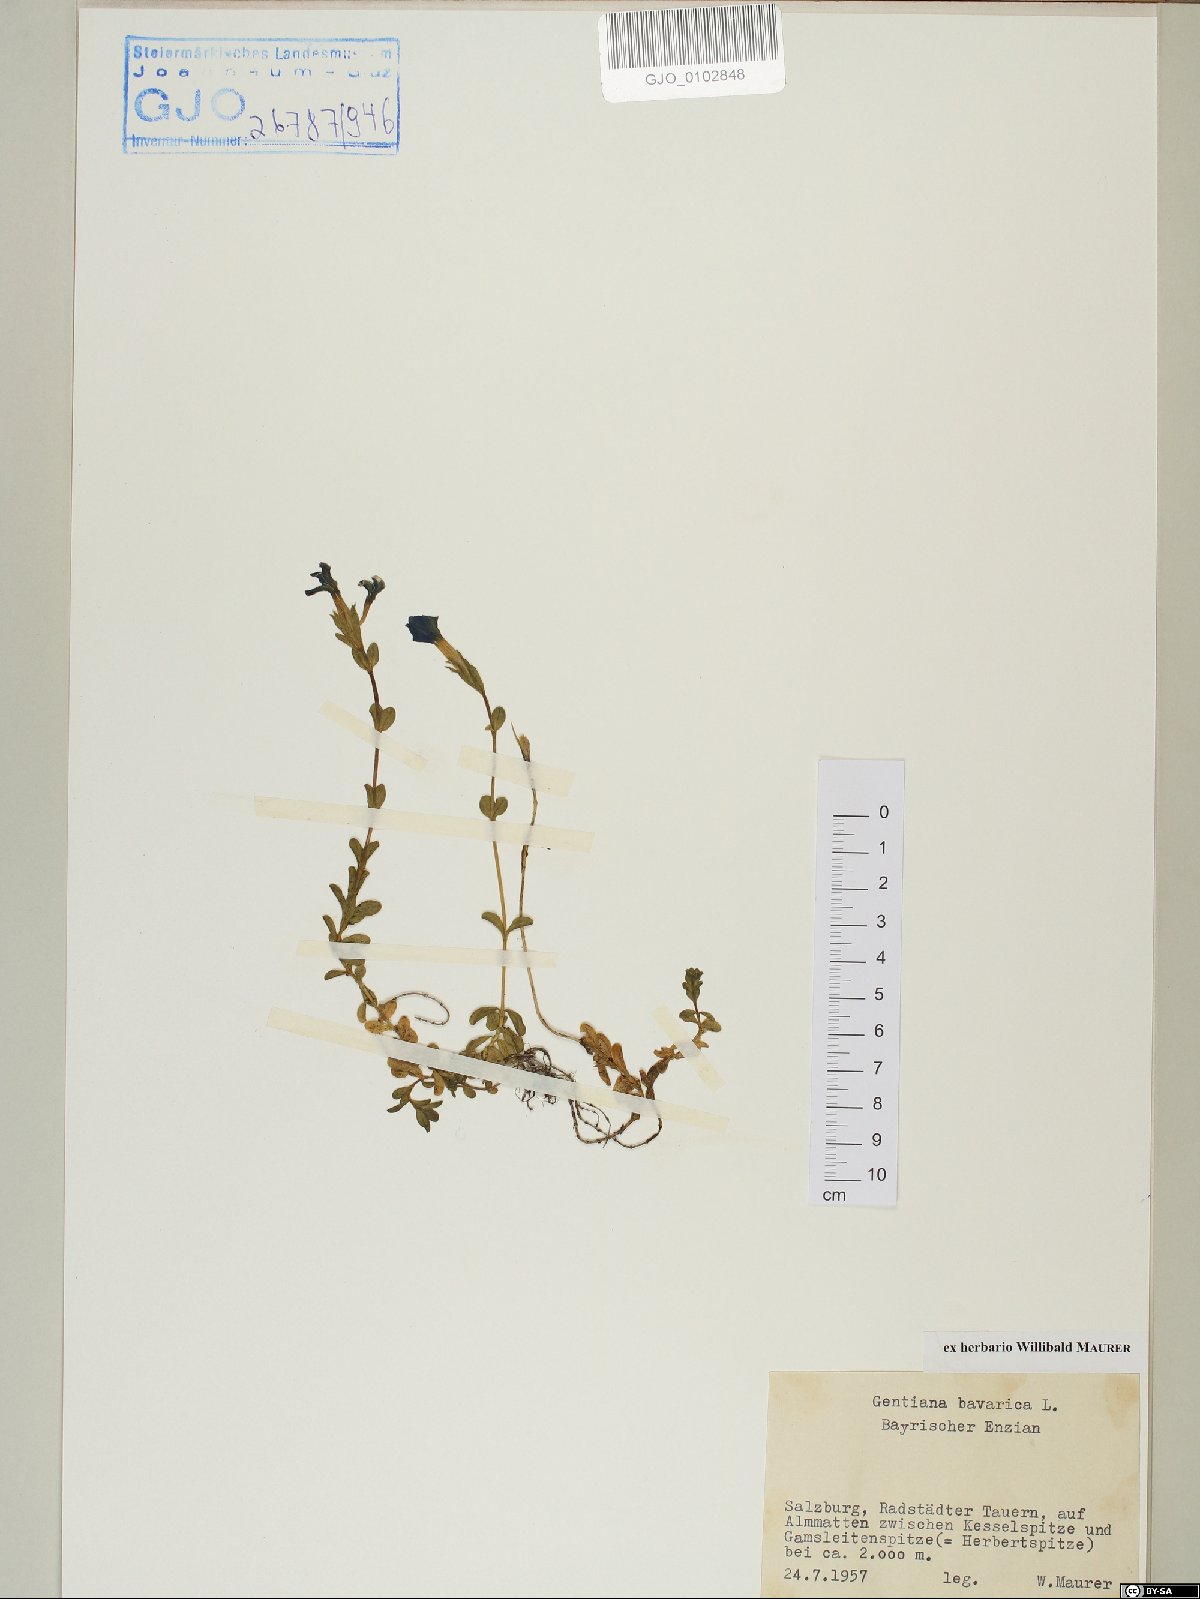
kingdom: Plantae
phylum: Tracheophyta
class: Magnoliopsida
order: Gentianales
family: Gentianaceae
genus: Gentiana
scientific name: Gentiana bavarica
